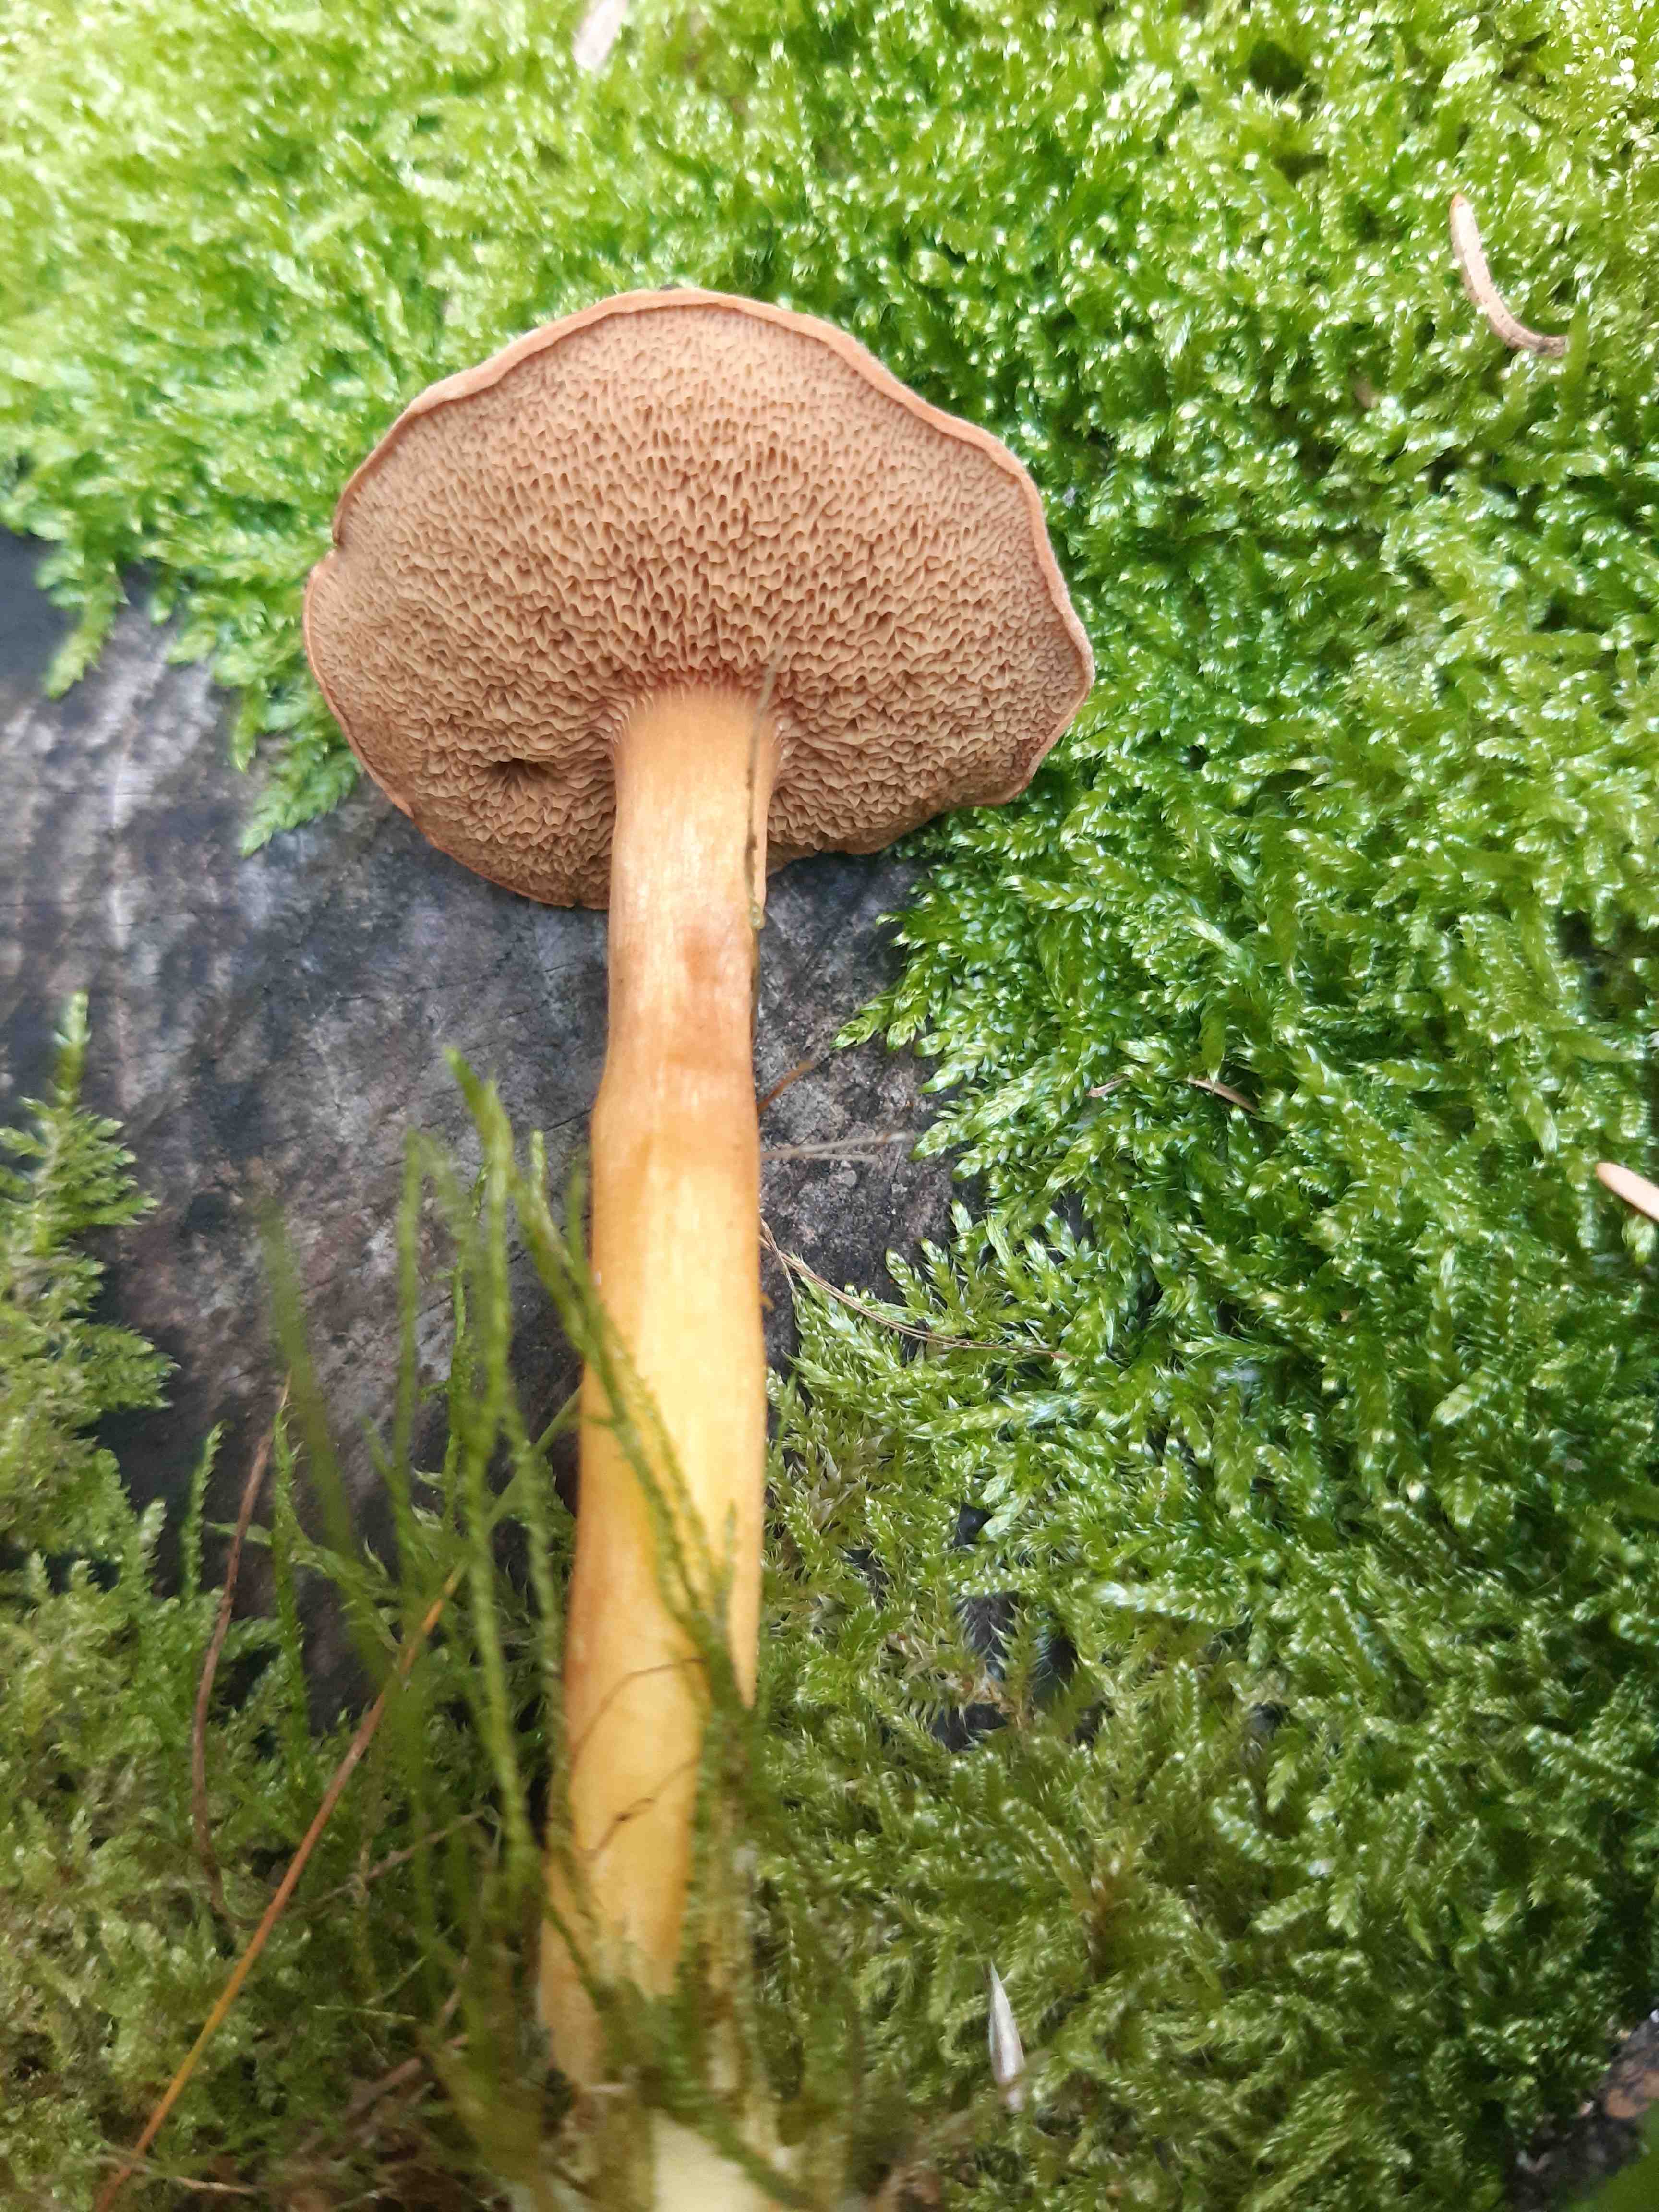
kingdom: Fungi
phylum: Basidiomycota
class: Agaricomycetes
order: Boletales
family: Boletaceae
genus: Chalciporus
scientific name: Chalciporus piperatus
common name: peberrørhat
